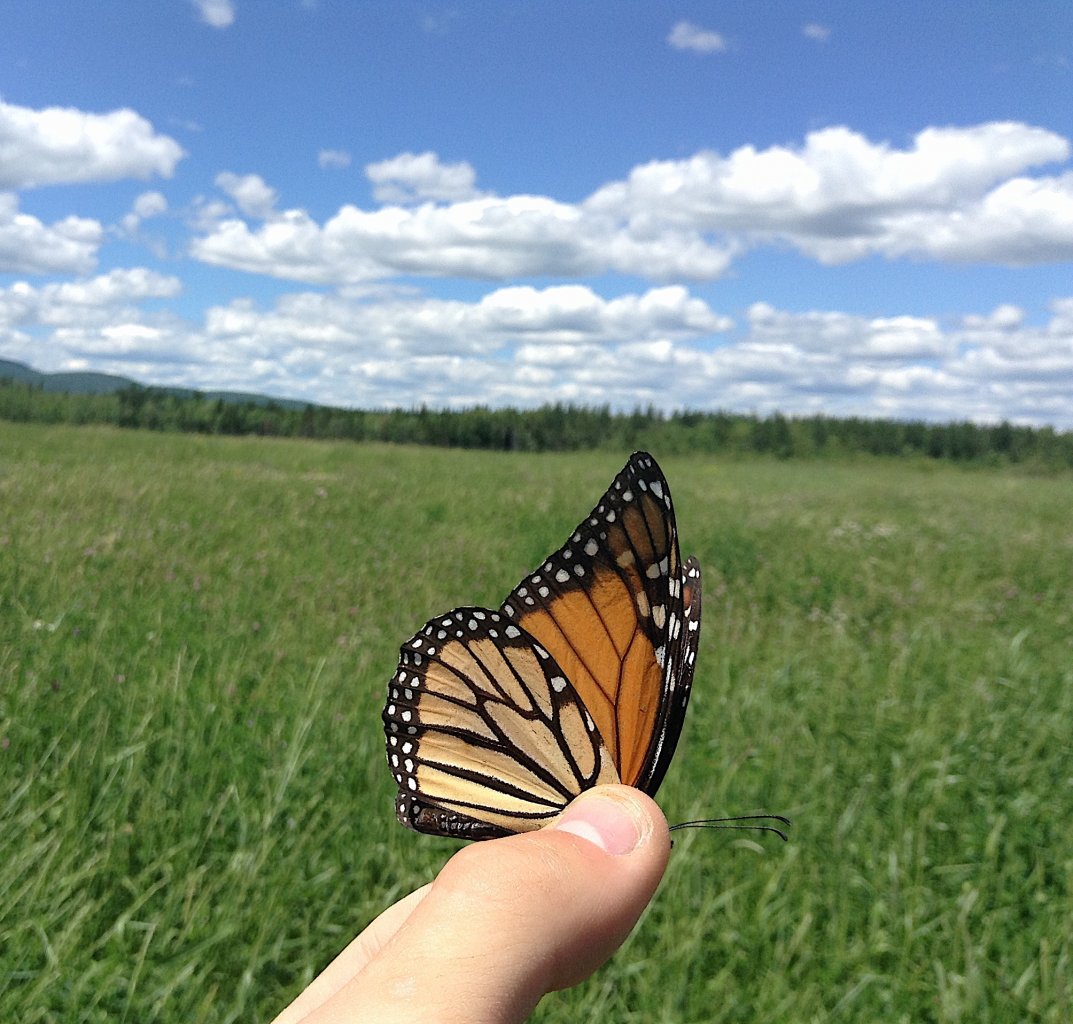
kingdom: Animalia
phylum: Arthropoda
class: Insecta
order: Lepidoptera
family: Nymphalidae
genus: Danaus
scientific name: Danaus plexippus
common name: Monarch
